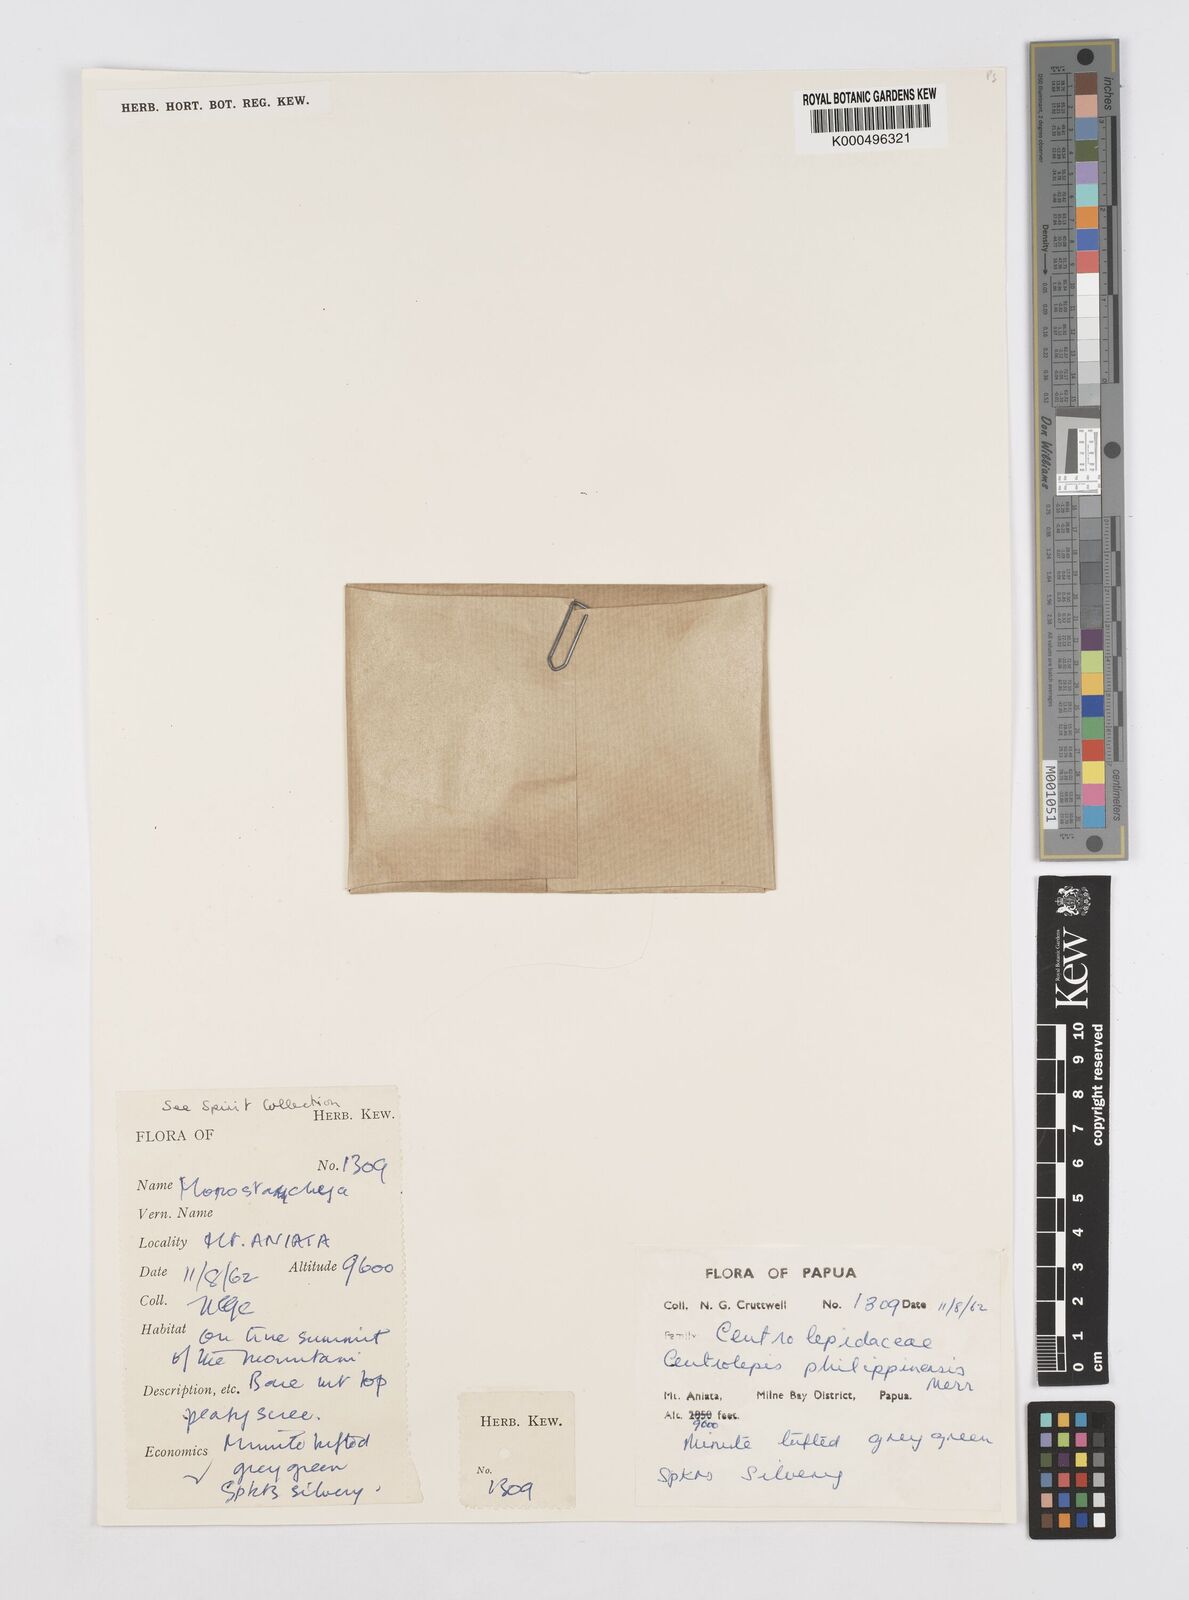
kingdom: Plantae
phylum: Tracheophyta
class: Liliopsida
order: Poales
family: Restionaceae
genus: Centrolepis
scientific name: Centrolepis philippinensis
